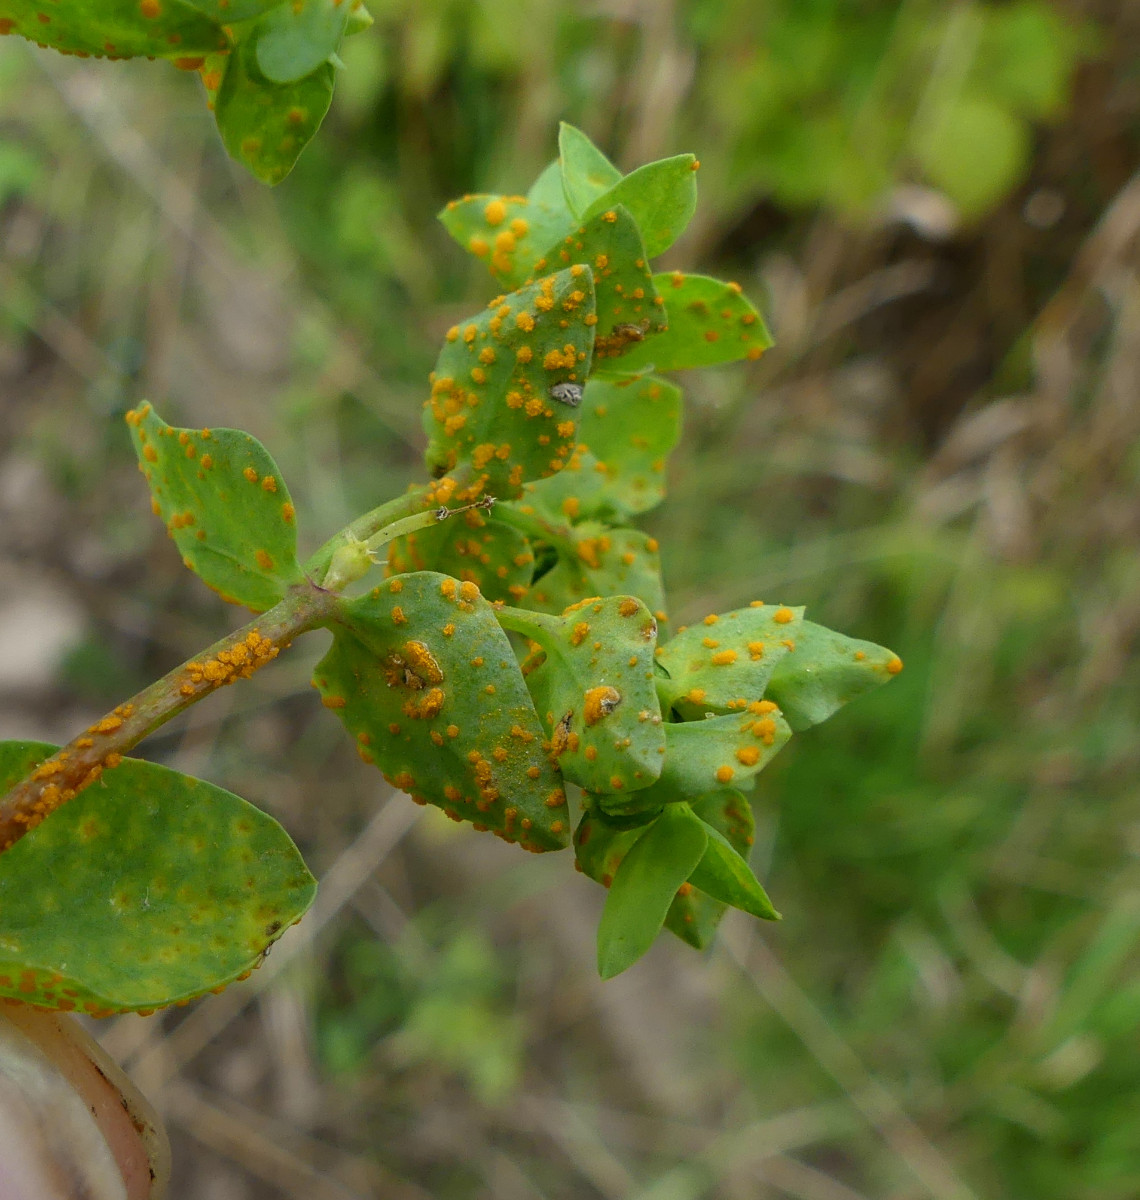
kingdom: Fungi
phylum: Basidiomycota
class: Pucciniomycetes
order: Pucciniales
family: Melampsoraceae
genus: Melampsora
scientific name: Melampsora euphorbiae
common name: vortemælk-skorperust
